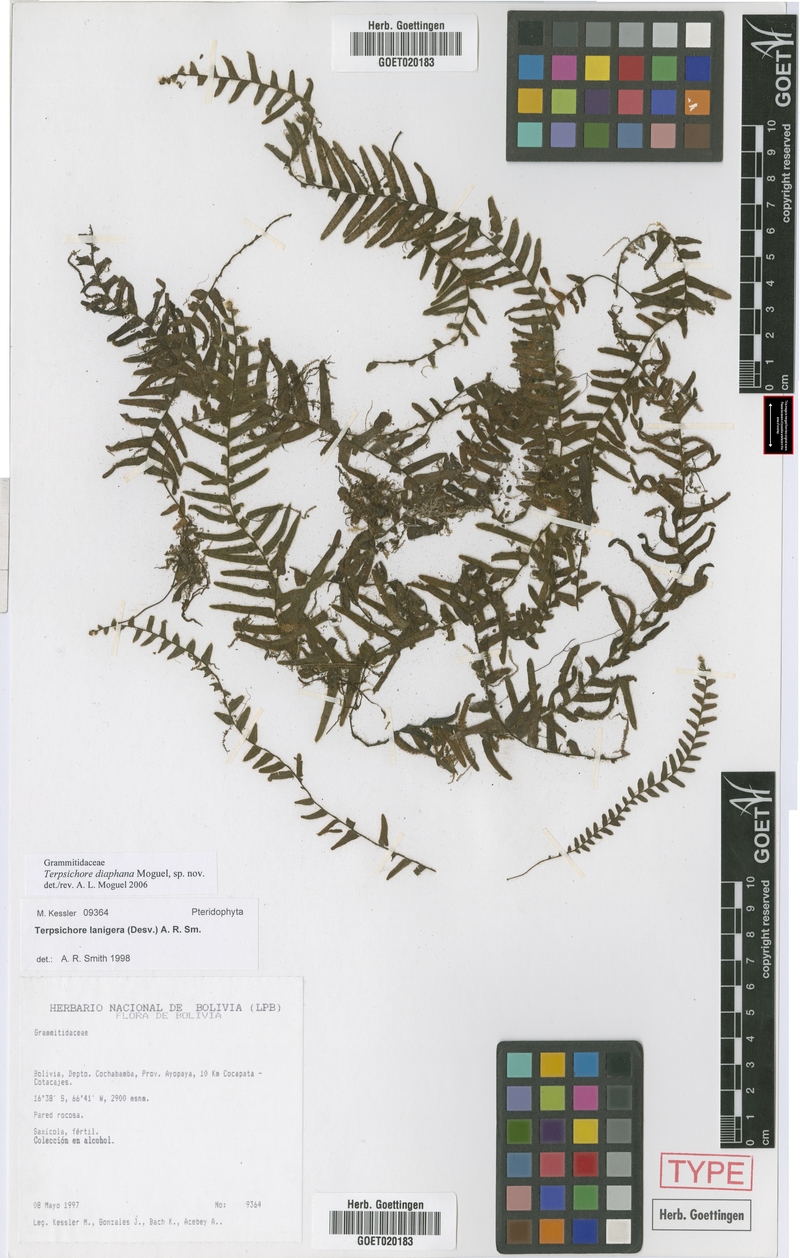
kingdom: Plantae
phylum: Tracheophyta
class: Polypodiopsida
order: Polypodiales
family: Polypodiaceae
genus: Alansmia
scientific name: Alansmia diaphana
